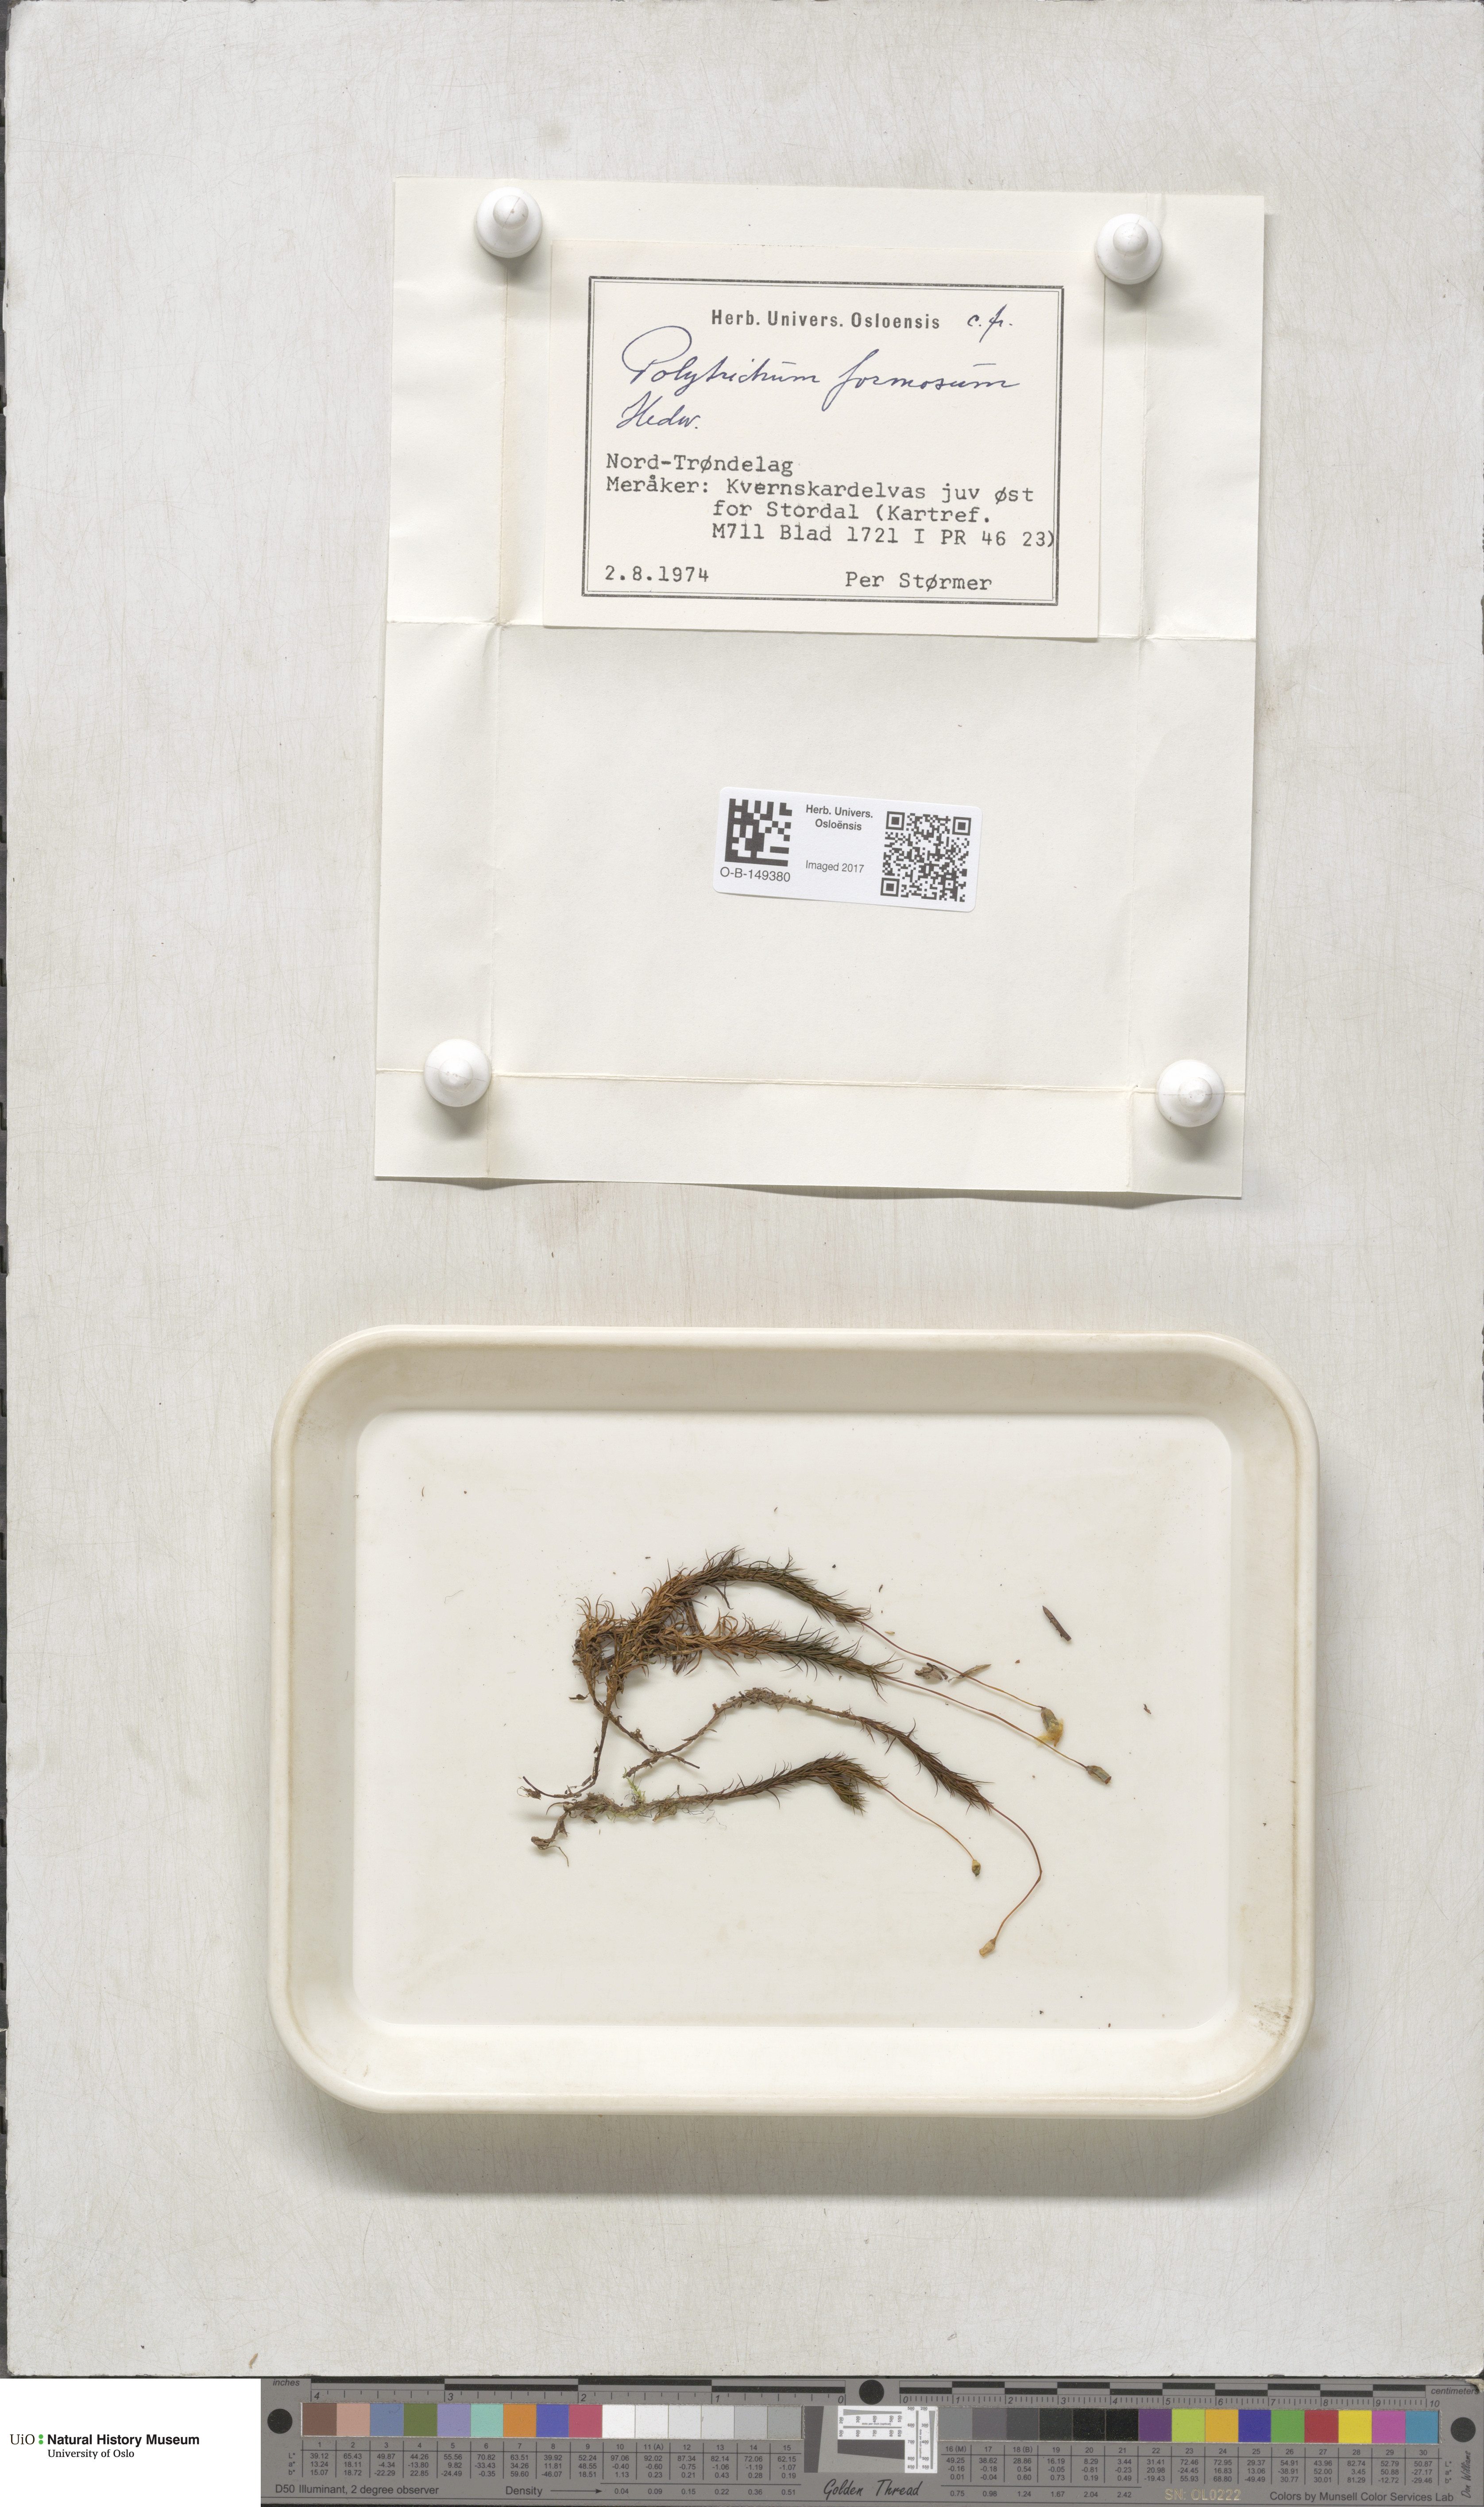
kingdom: Plantae
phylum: Bryophyta
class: Polytrichopsida
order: Polytrichales
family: Polytrichaceae
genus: Polytrichum
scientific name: Polytrichum formosum
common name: Bank haircap moss
